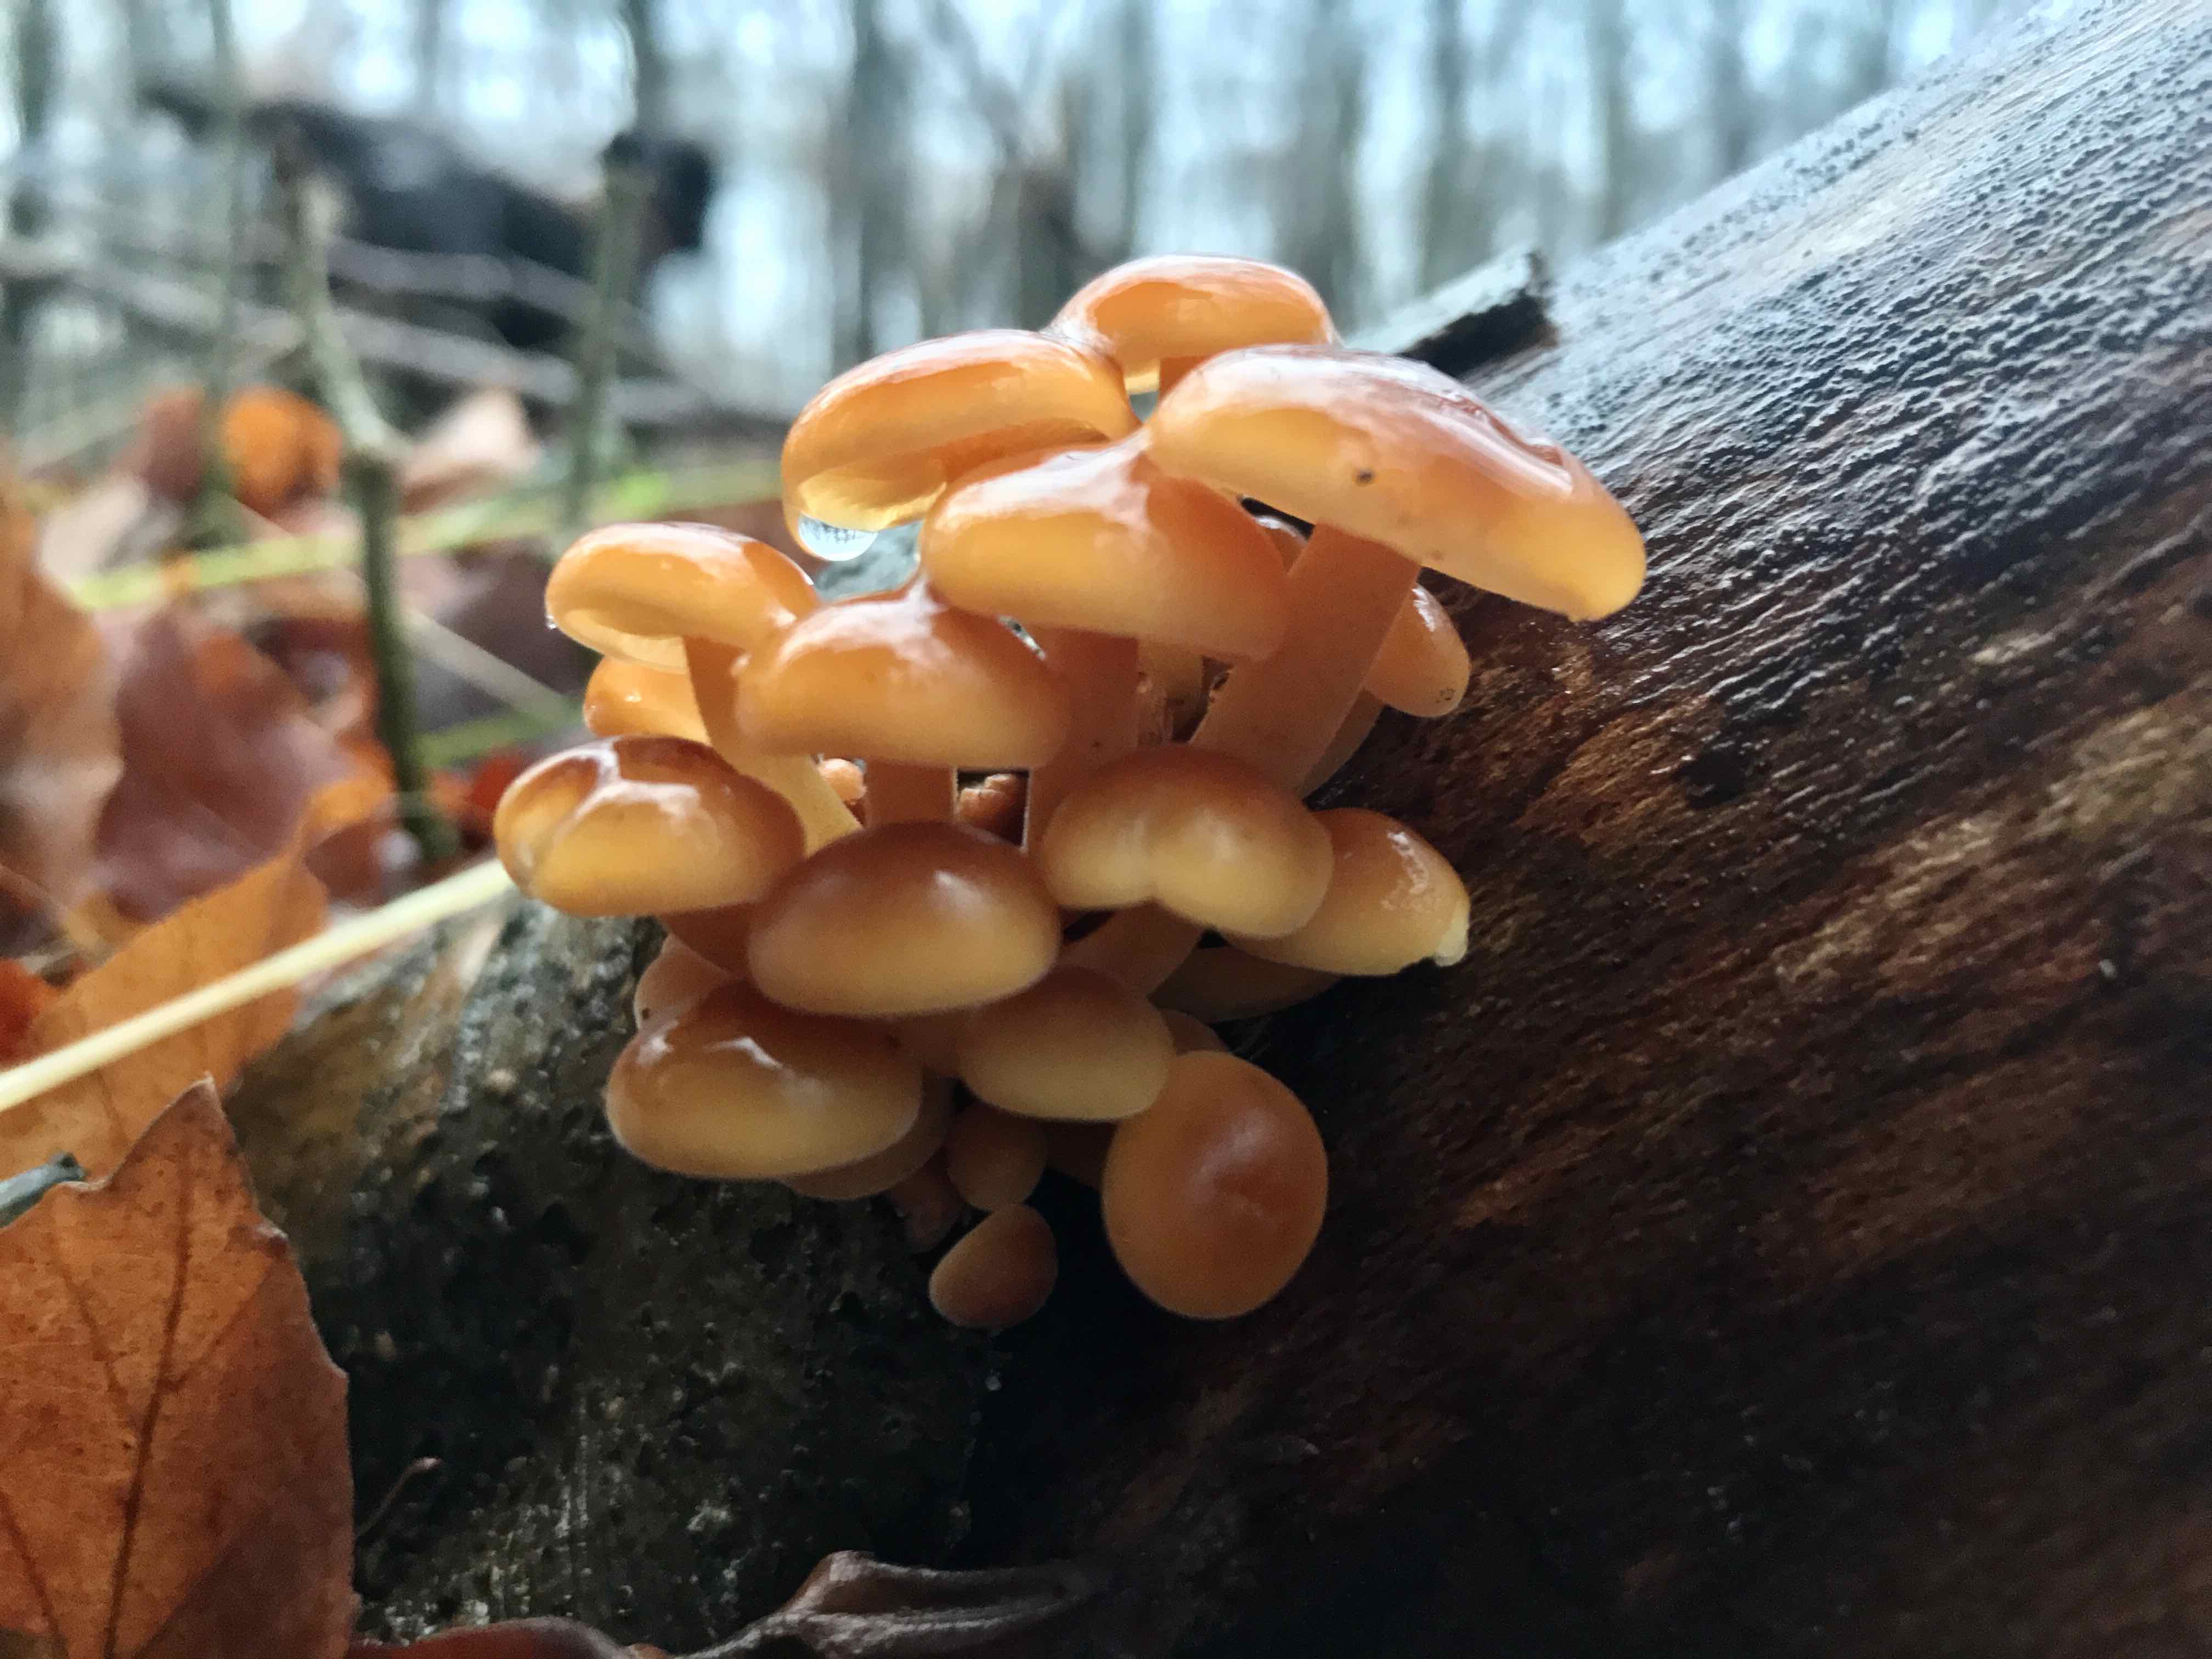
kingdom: Fungi
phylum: Basidiomycota
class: Agaricomycetes
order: Agaricales
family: Physalacriaceae
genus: Flammulina
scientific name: Flammulina velutipes
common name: gul fløjlsfod
